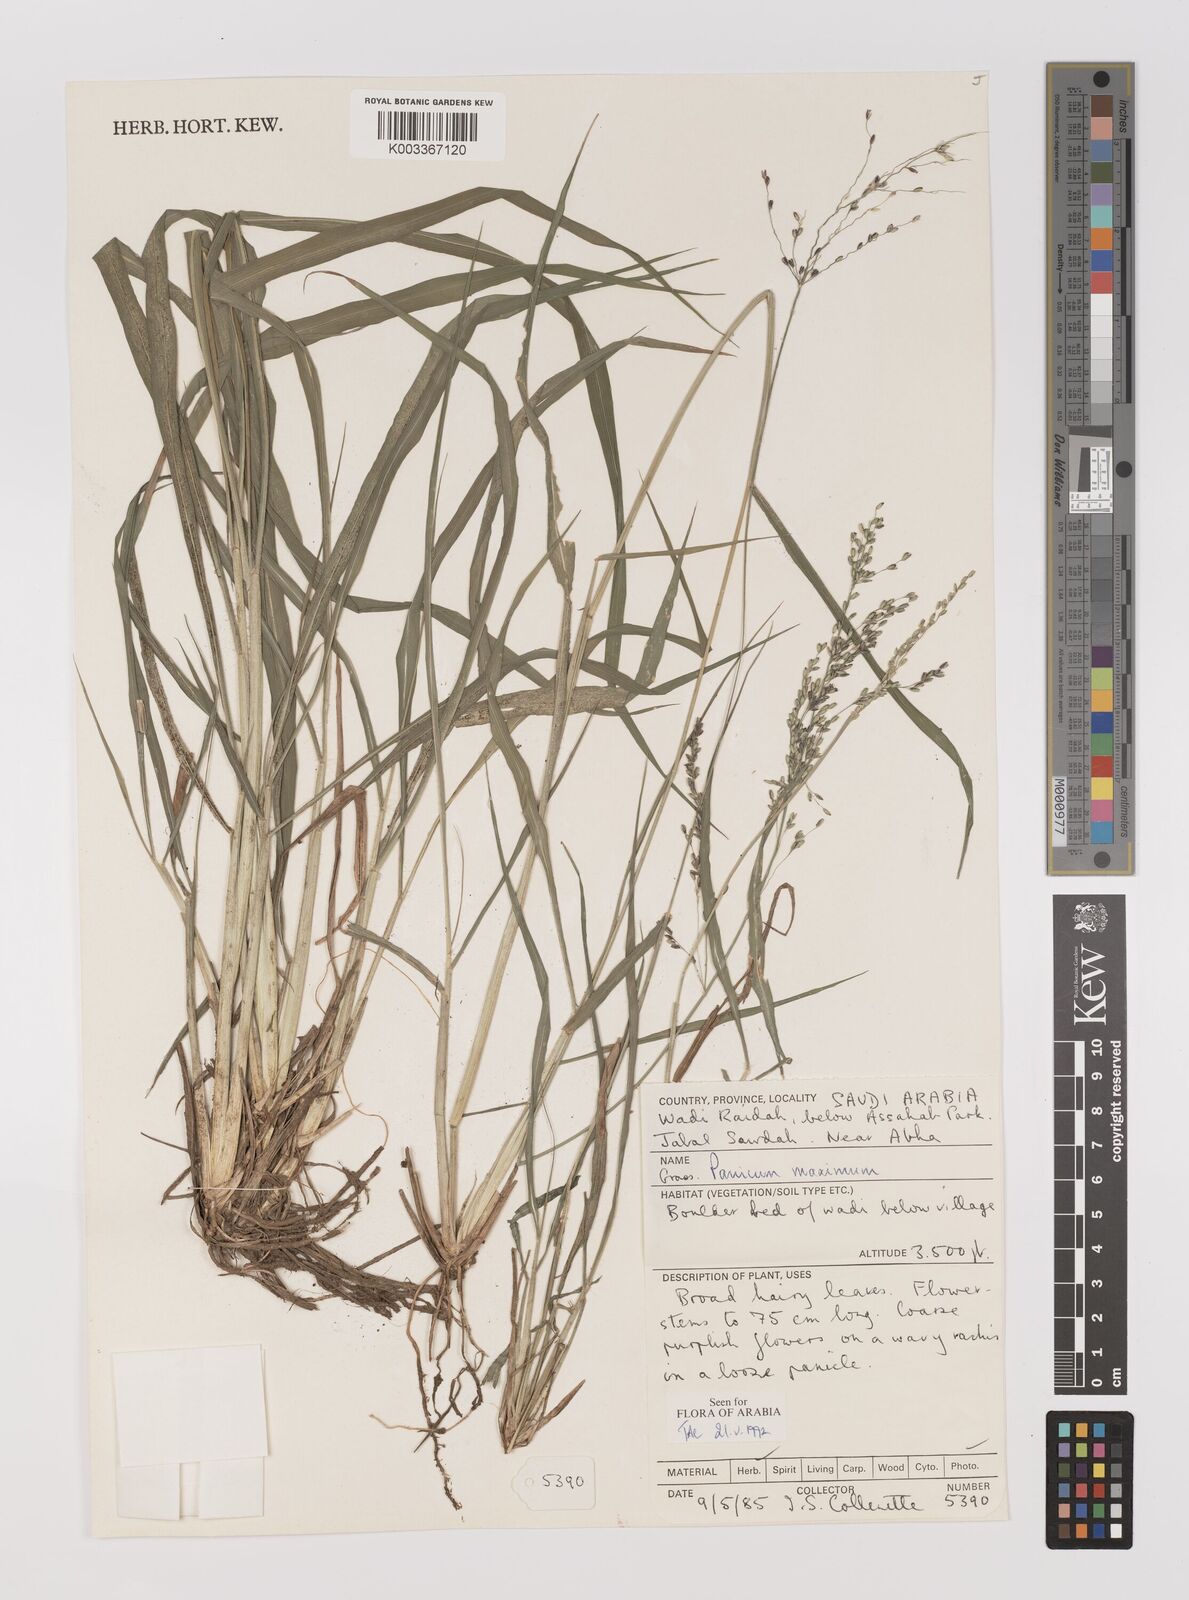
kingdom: Plantae
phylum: Tracheophyta
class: Liliopsida
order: Poales
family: Poaceae
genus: Megathyrsus
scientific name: Megathyrsus maximus
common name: Guineagrass
